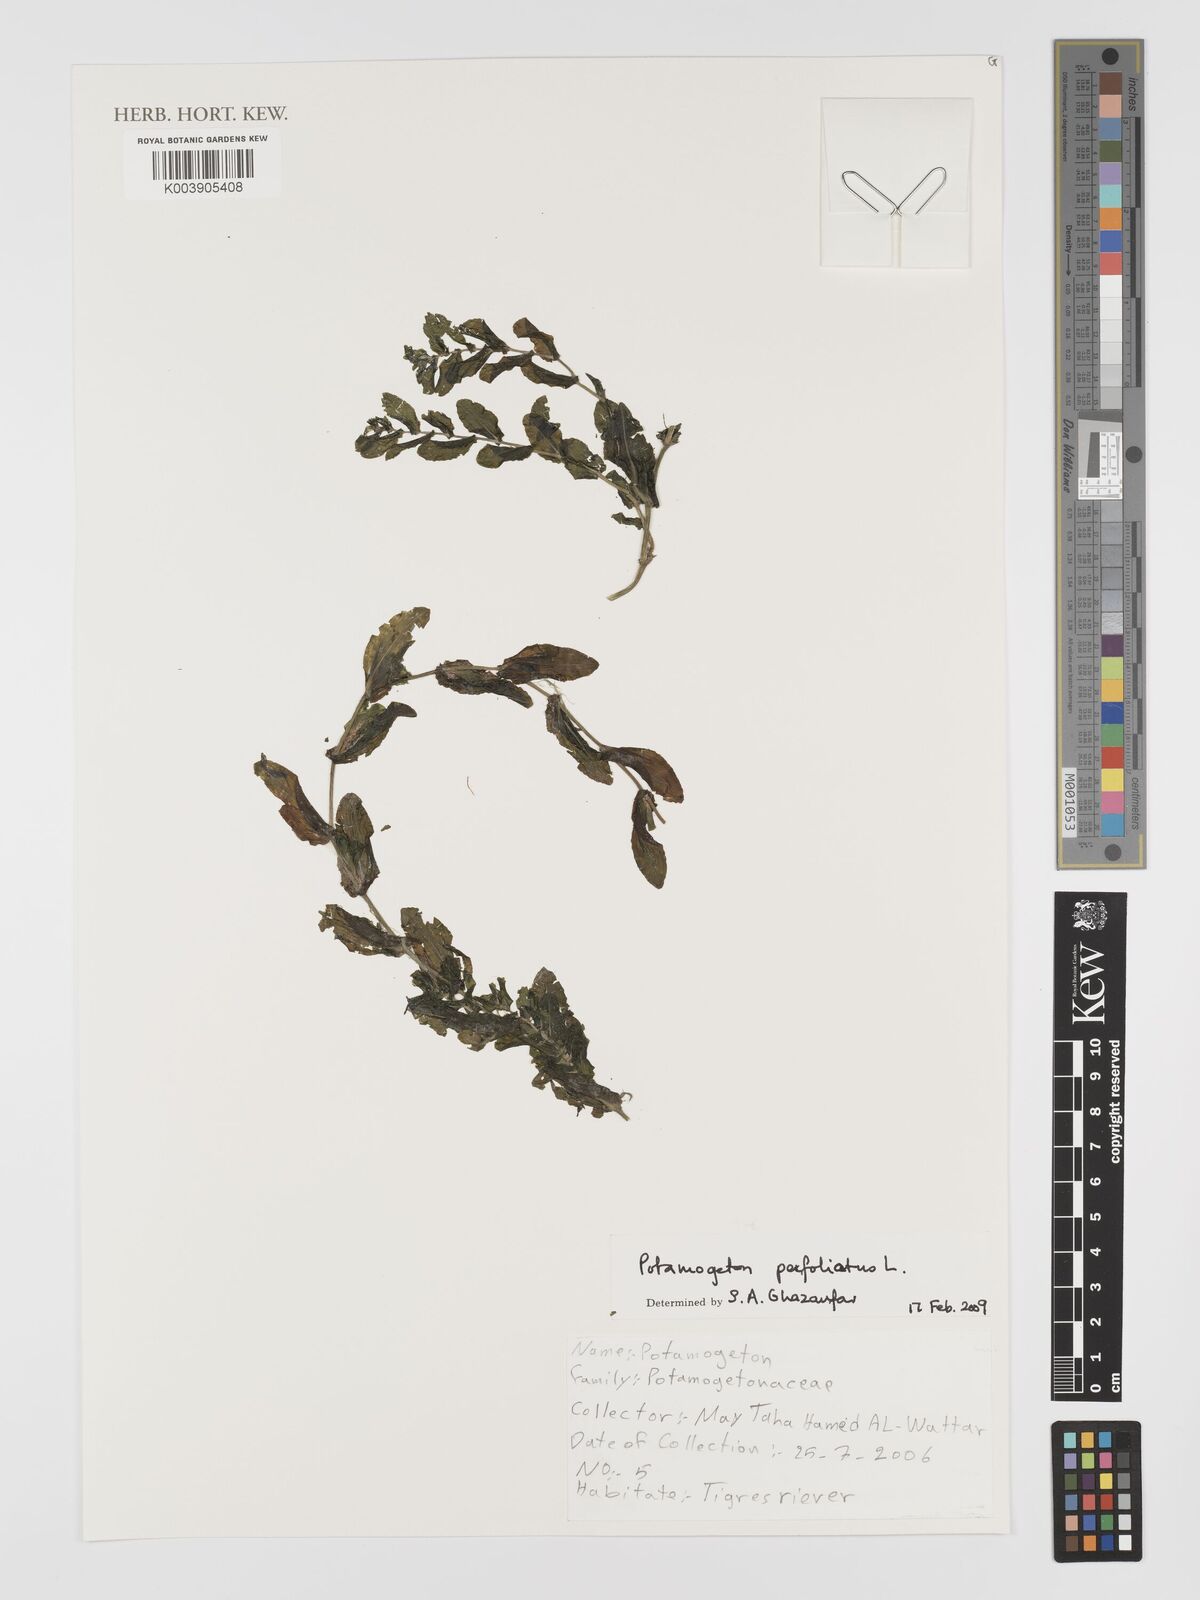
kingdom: Plantae
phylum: Tracheophyta
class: Liliopsida
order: Alismatales
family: Potamogetonaceae
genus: Potamogeton
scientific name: Potamogeton perfoliatus
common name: Perfoliate pondweed
